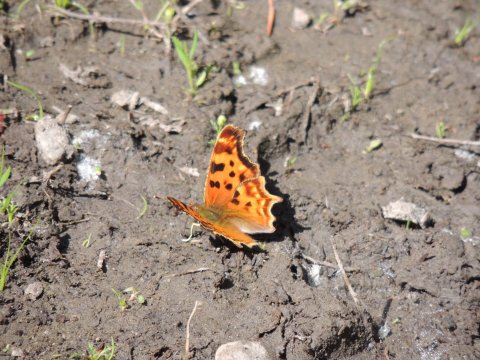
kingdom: Animalia
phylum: Arthropoda
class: Insecta
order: Lepidoptera
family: Nymphalidae
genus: Polygonia
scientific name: Polygonia satyrus
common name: Satyr Comma
